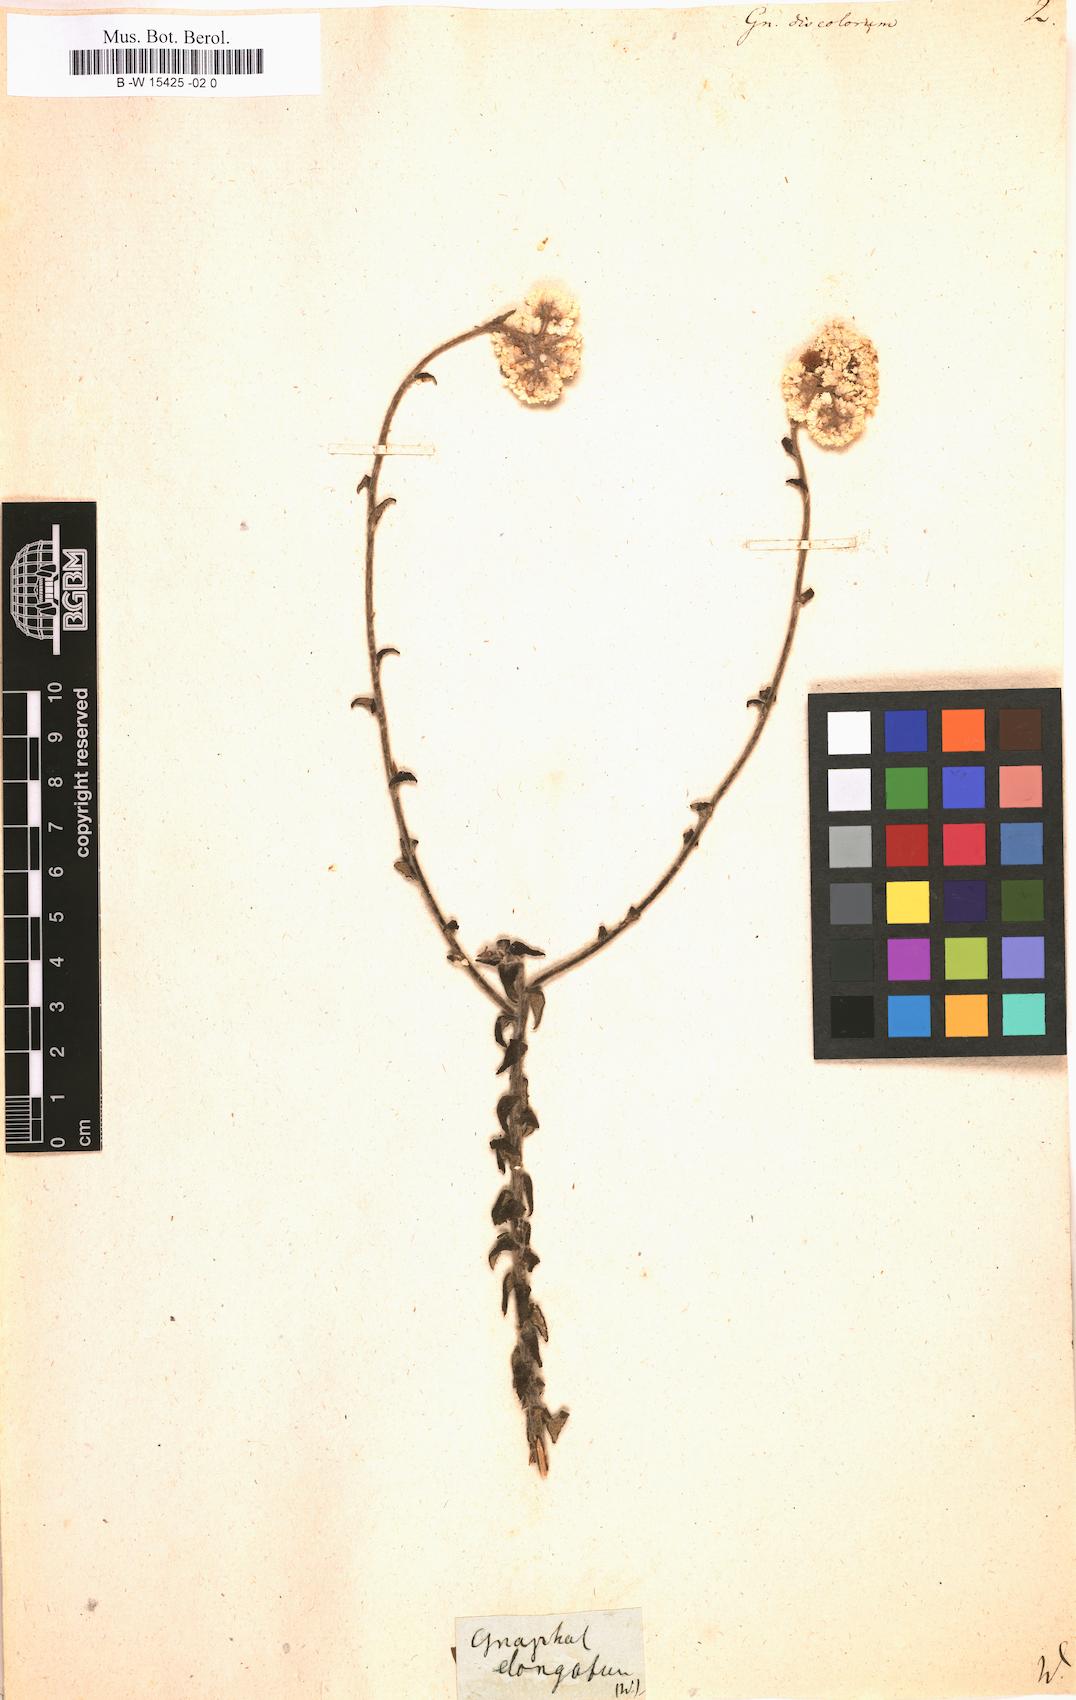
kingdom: Plantae
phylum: Tracheophyta
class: Magnoliopsida
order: Asterales
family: Asteraceae
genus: Helichrysum
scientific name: Helichrysum
